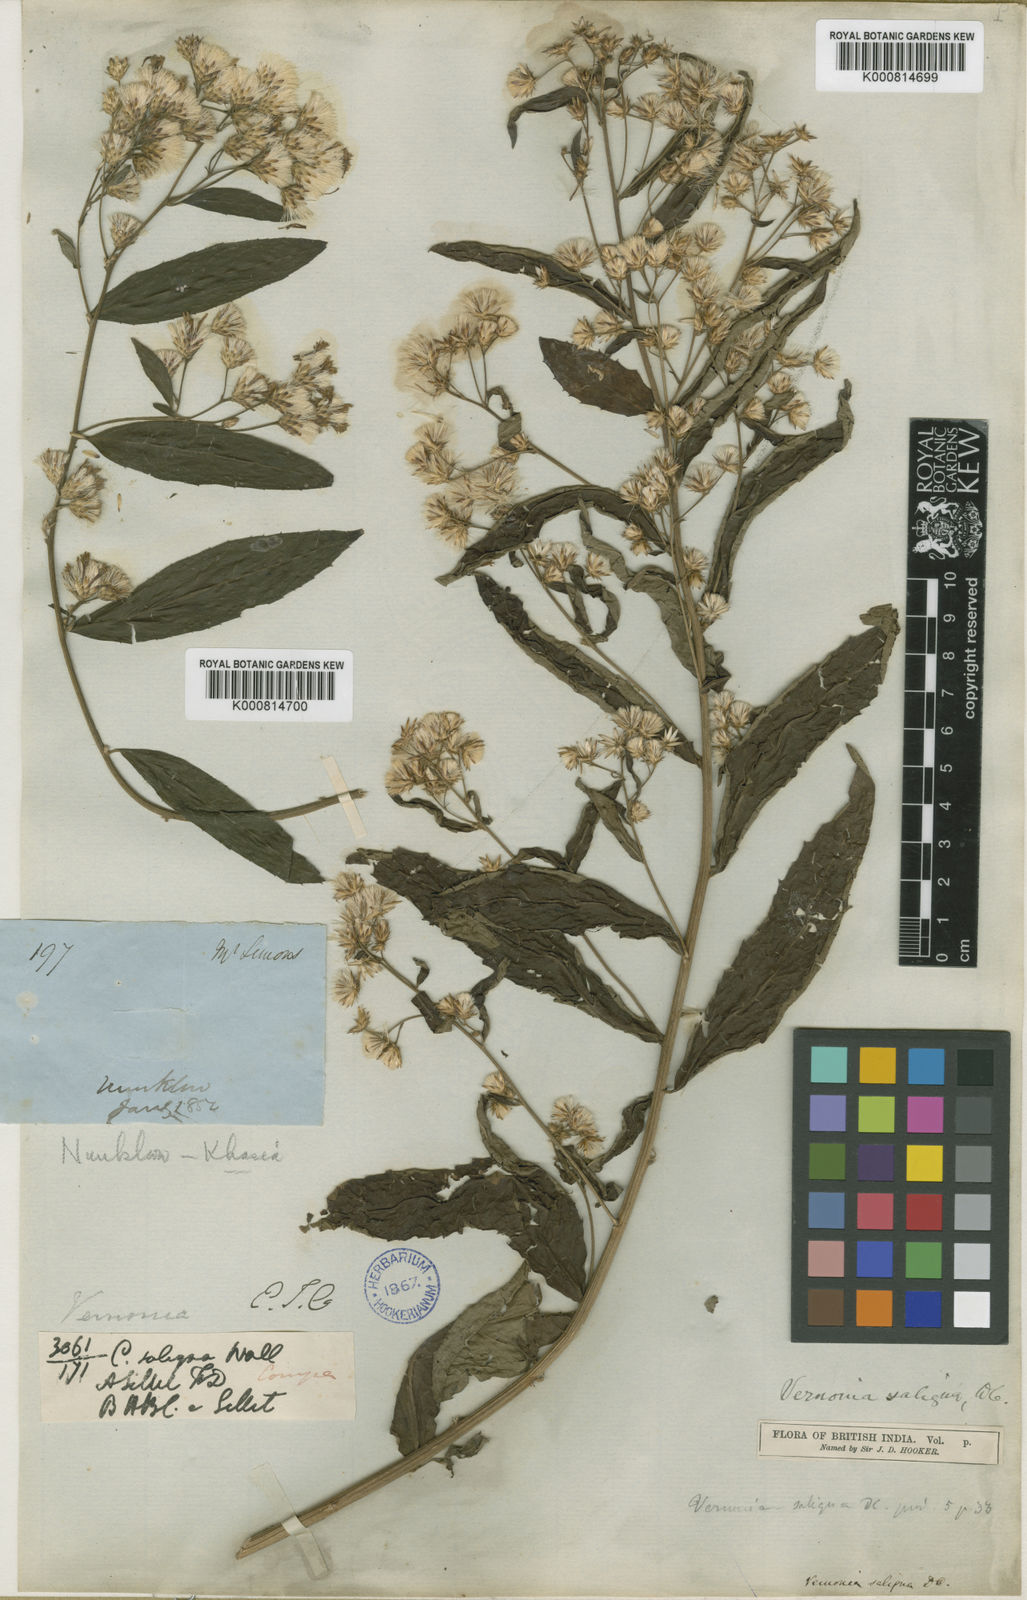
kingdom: Plantae
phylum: Tracheophyta
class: Magnoliopsida
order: Asterales
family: Asteraceae
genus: Acilepis
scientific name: Acilepis saligna
